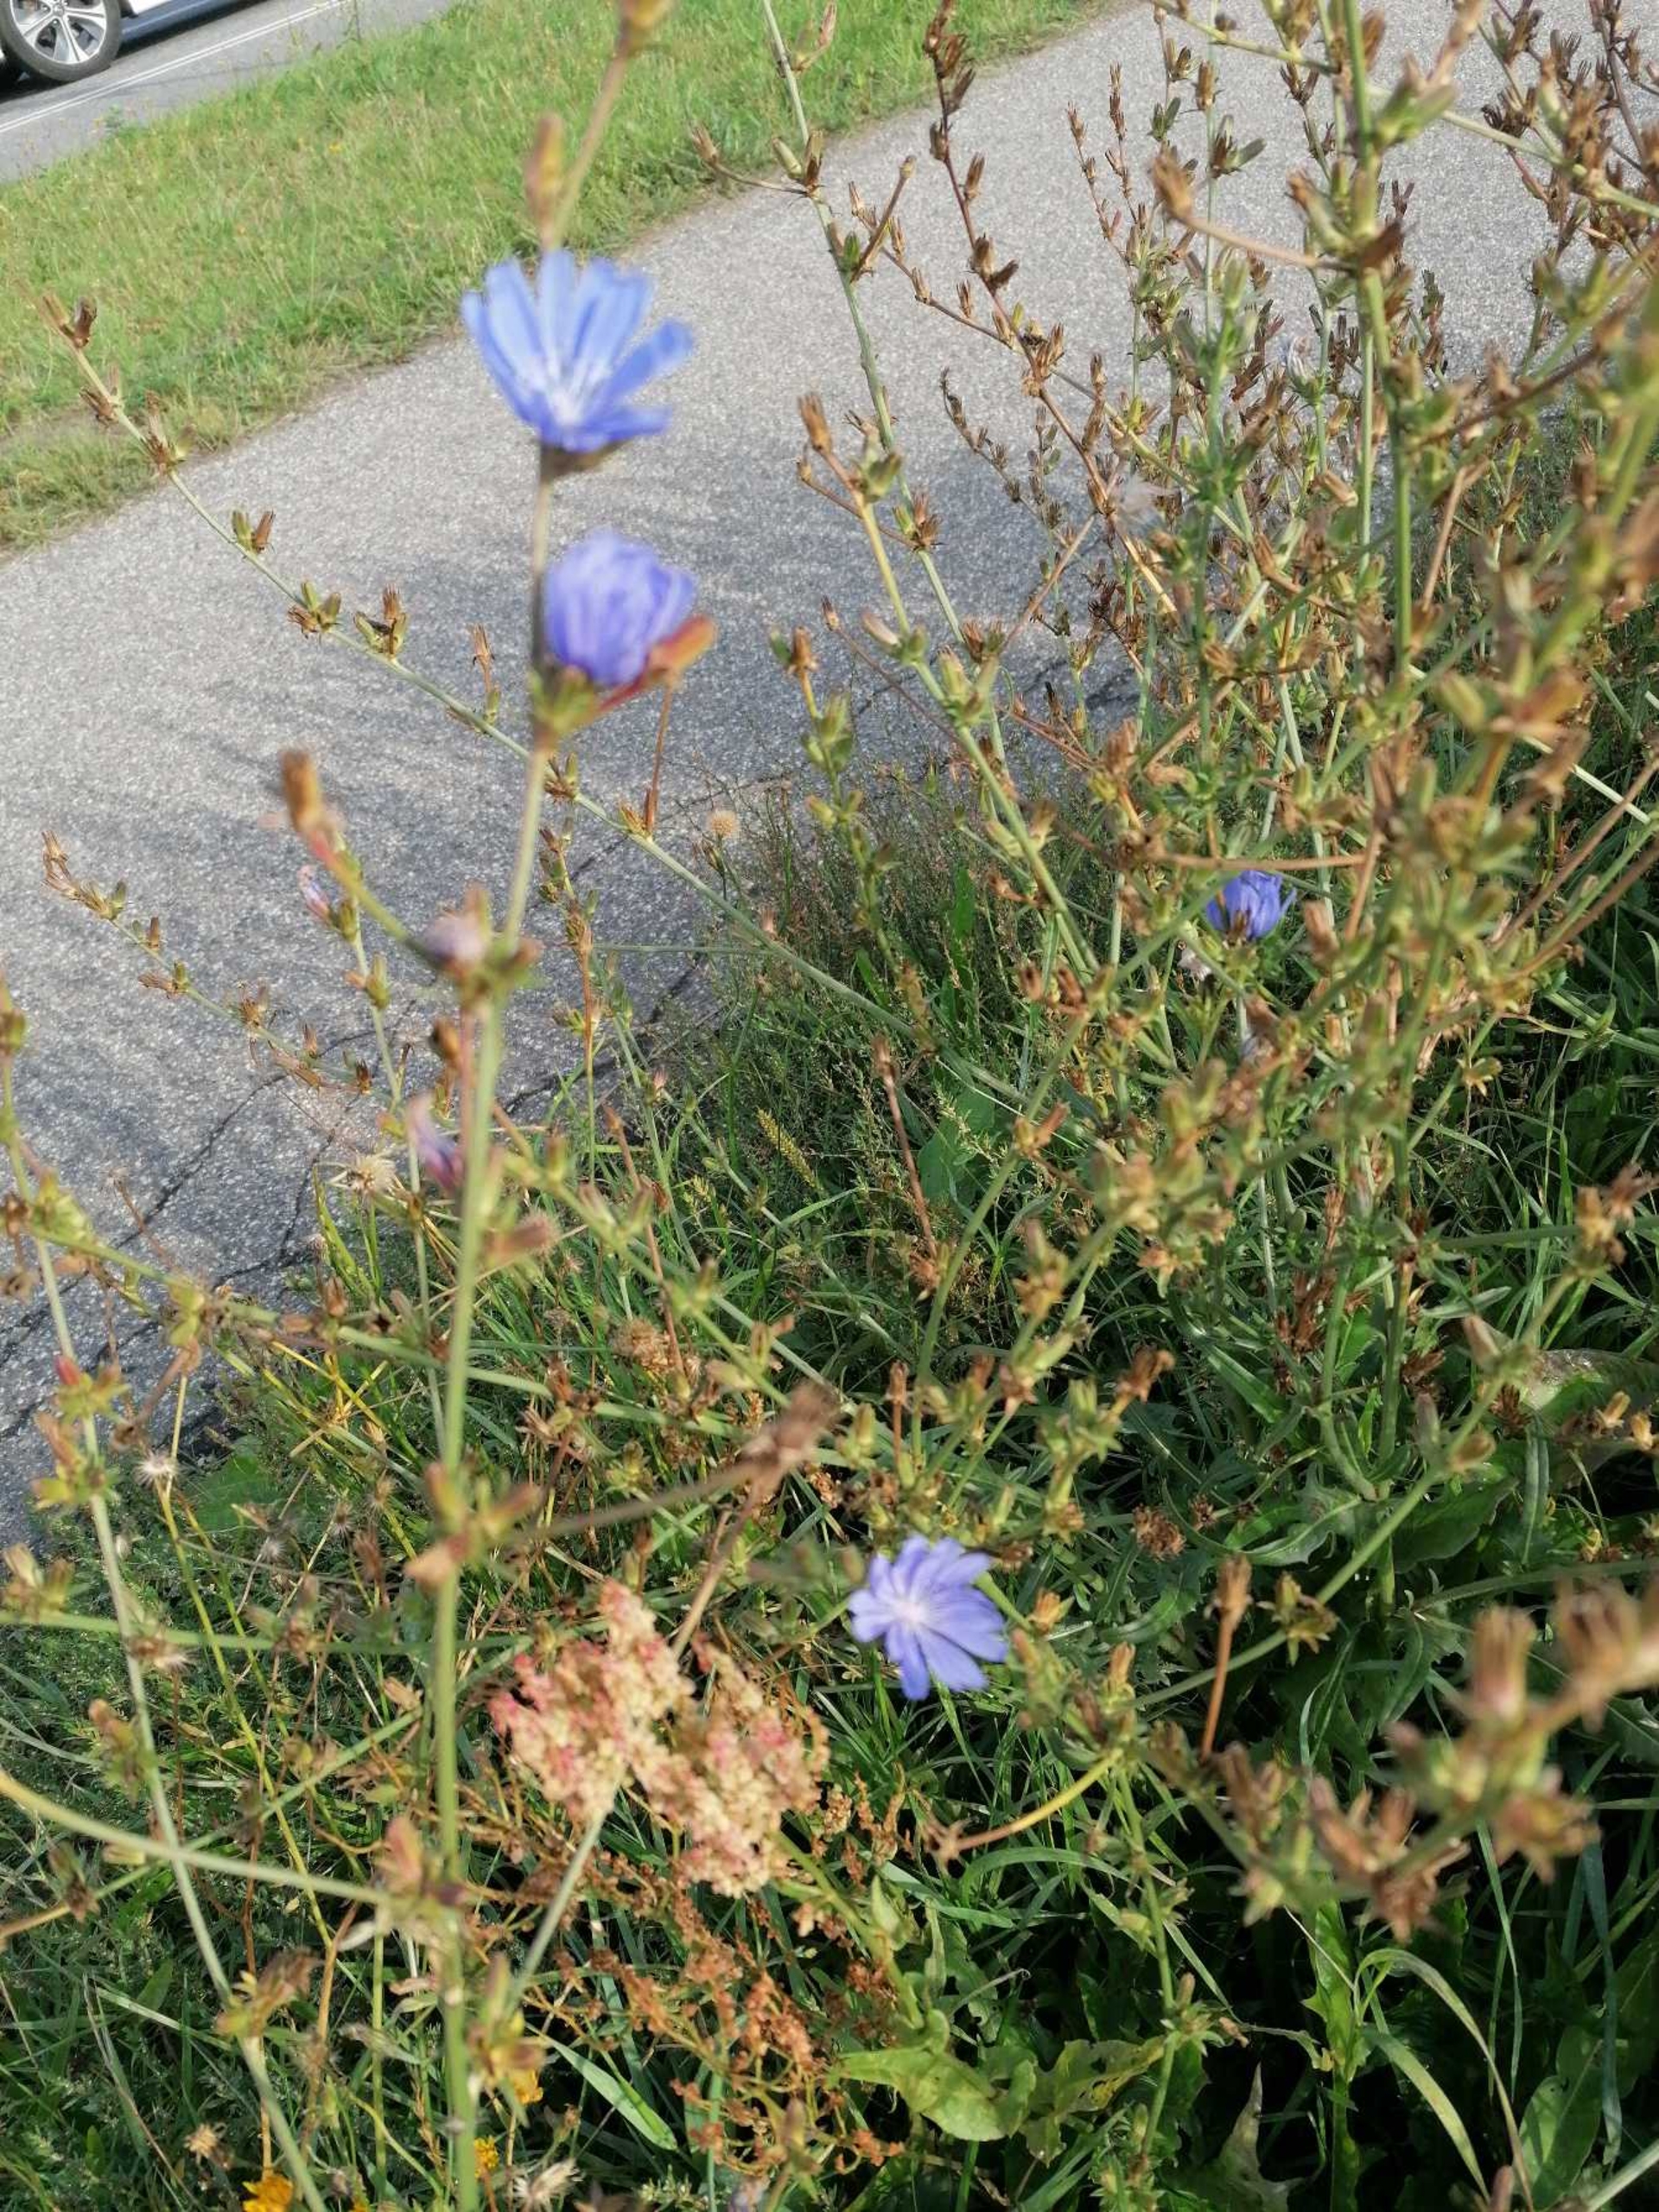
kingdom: Plantae
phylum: Tracheophyta
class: Magnoliopsida
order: Asterales
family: Asteraceae
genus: Cichorium
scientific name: Cichorium intybus
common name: Cikorie
